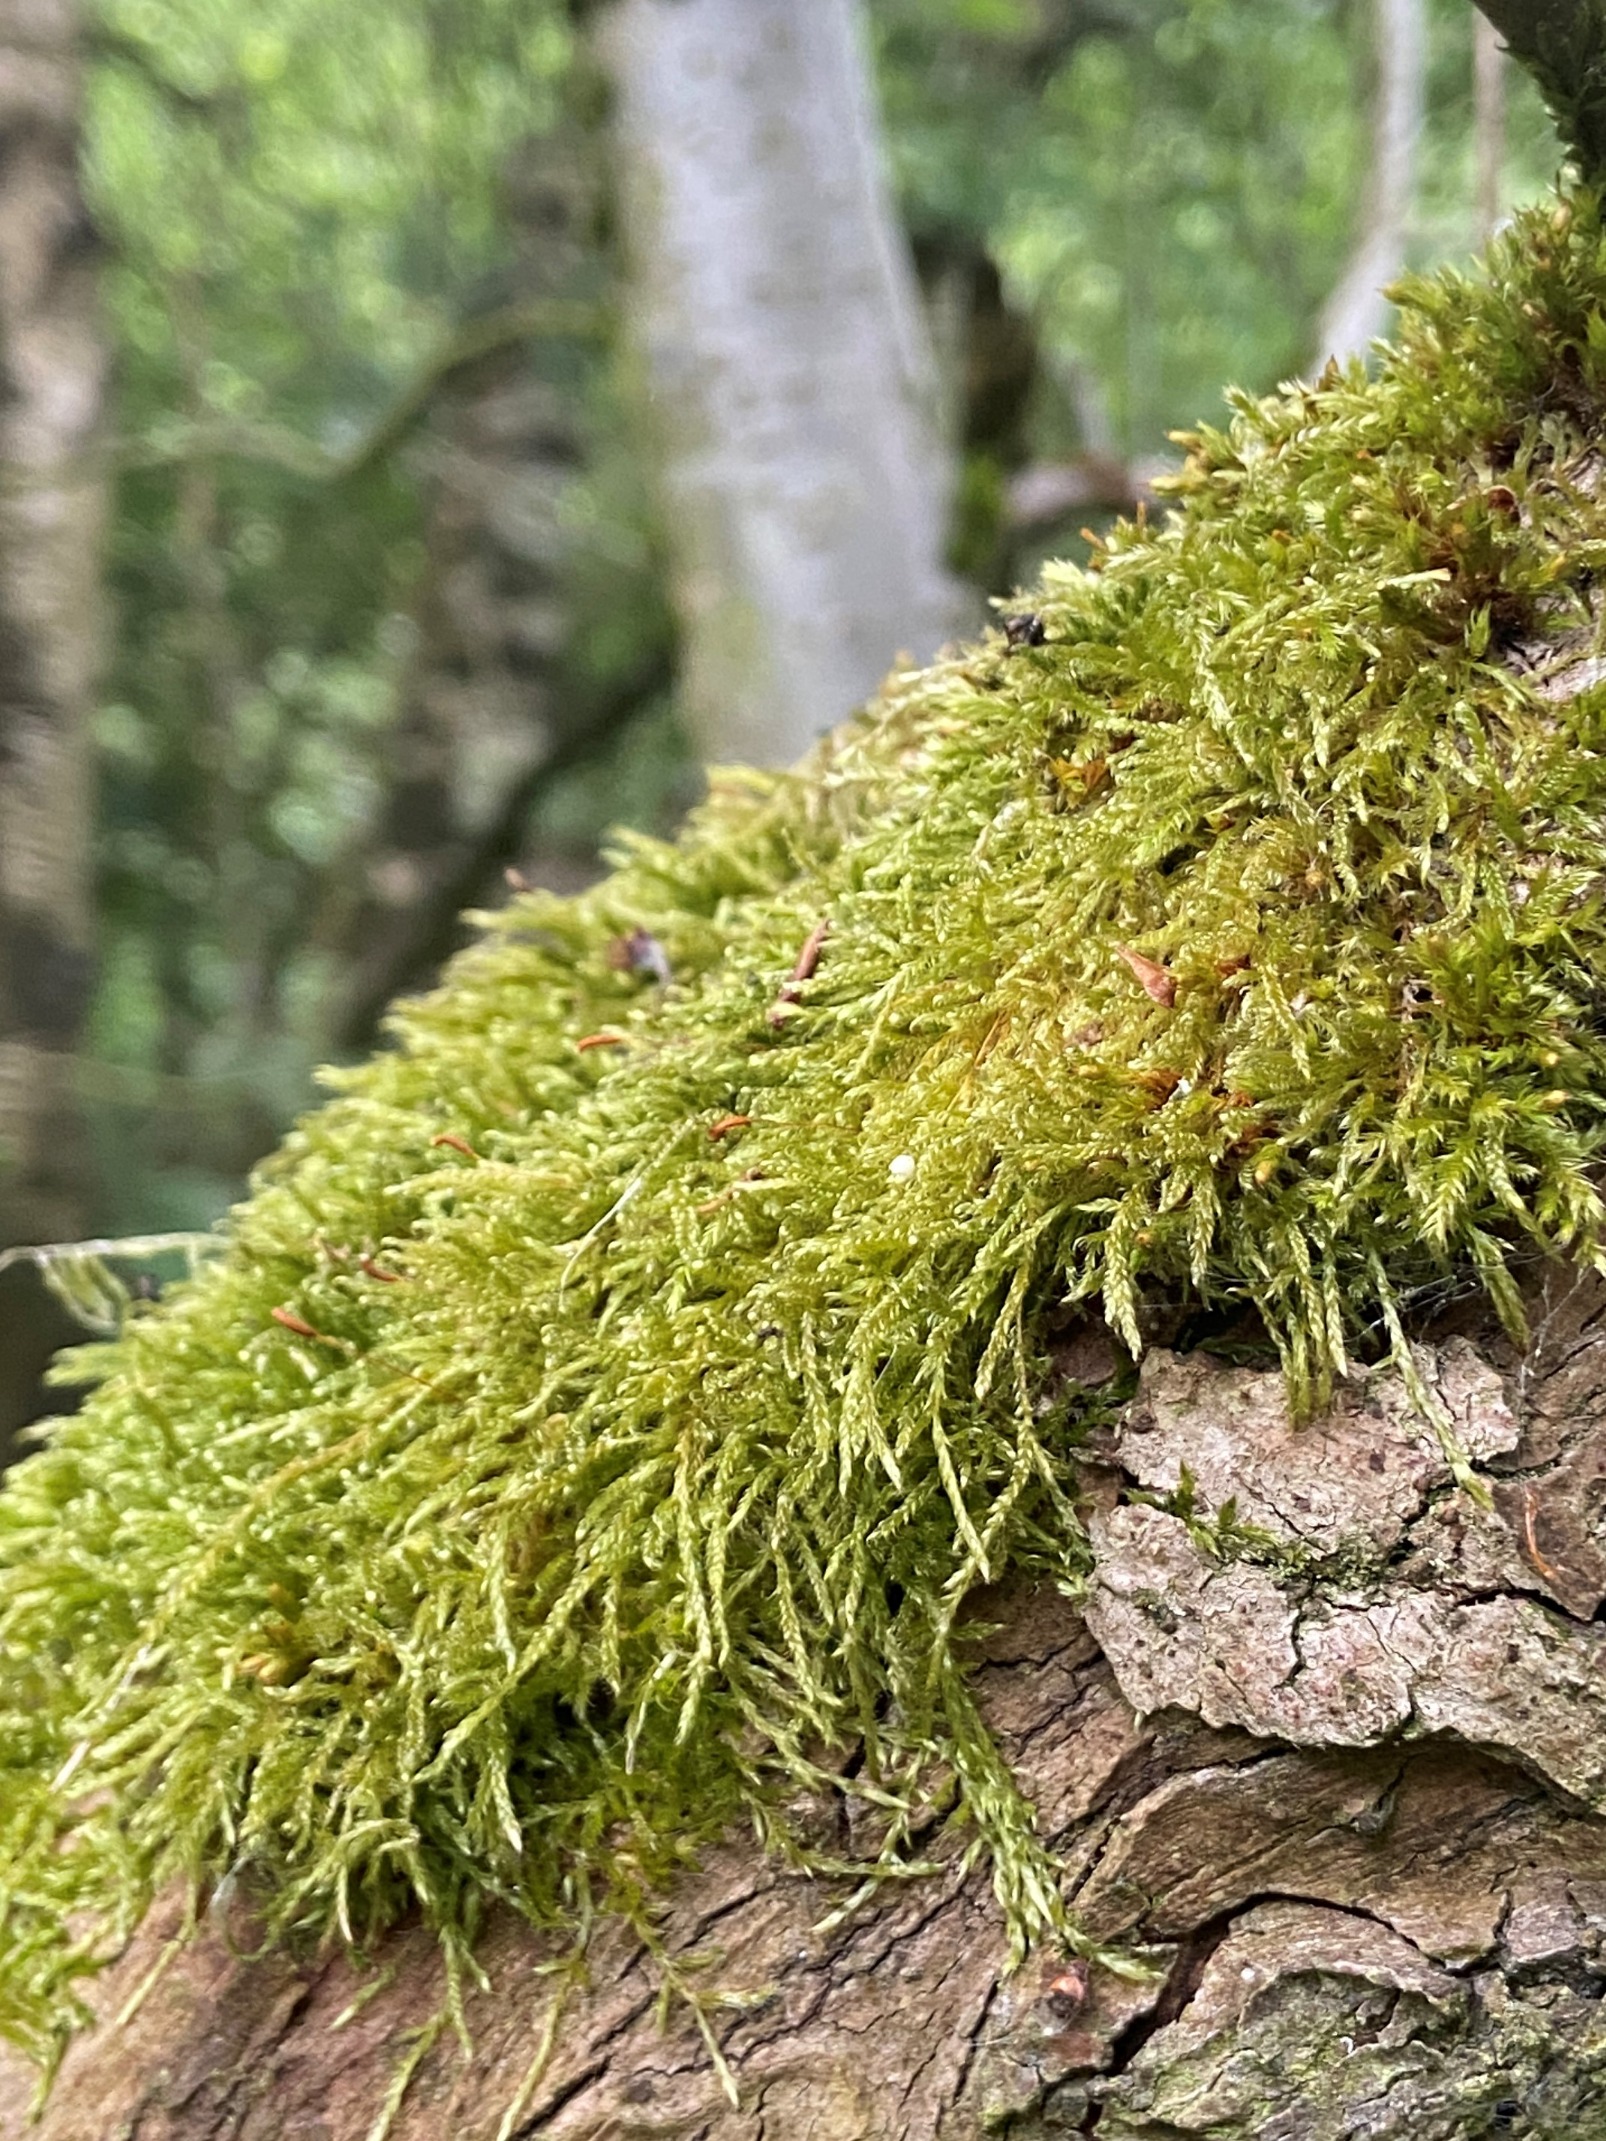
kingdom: Plantae
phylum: Bryophyta
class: Bryopsida
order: Hypnales
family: Hypnaceae
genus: Hypnum
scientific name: Hypnum cupressiforme
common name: Almindelig cypresmos
